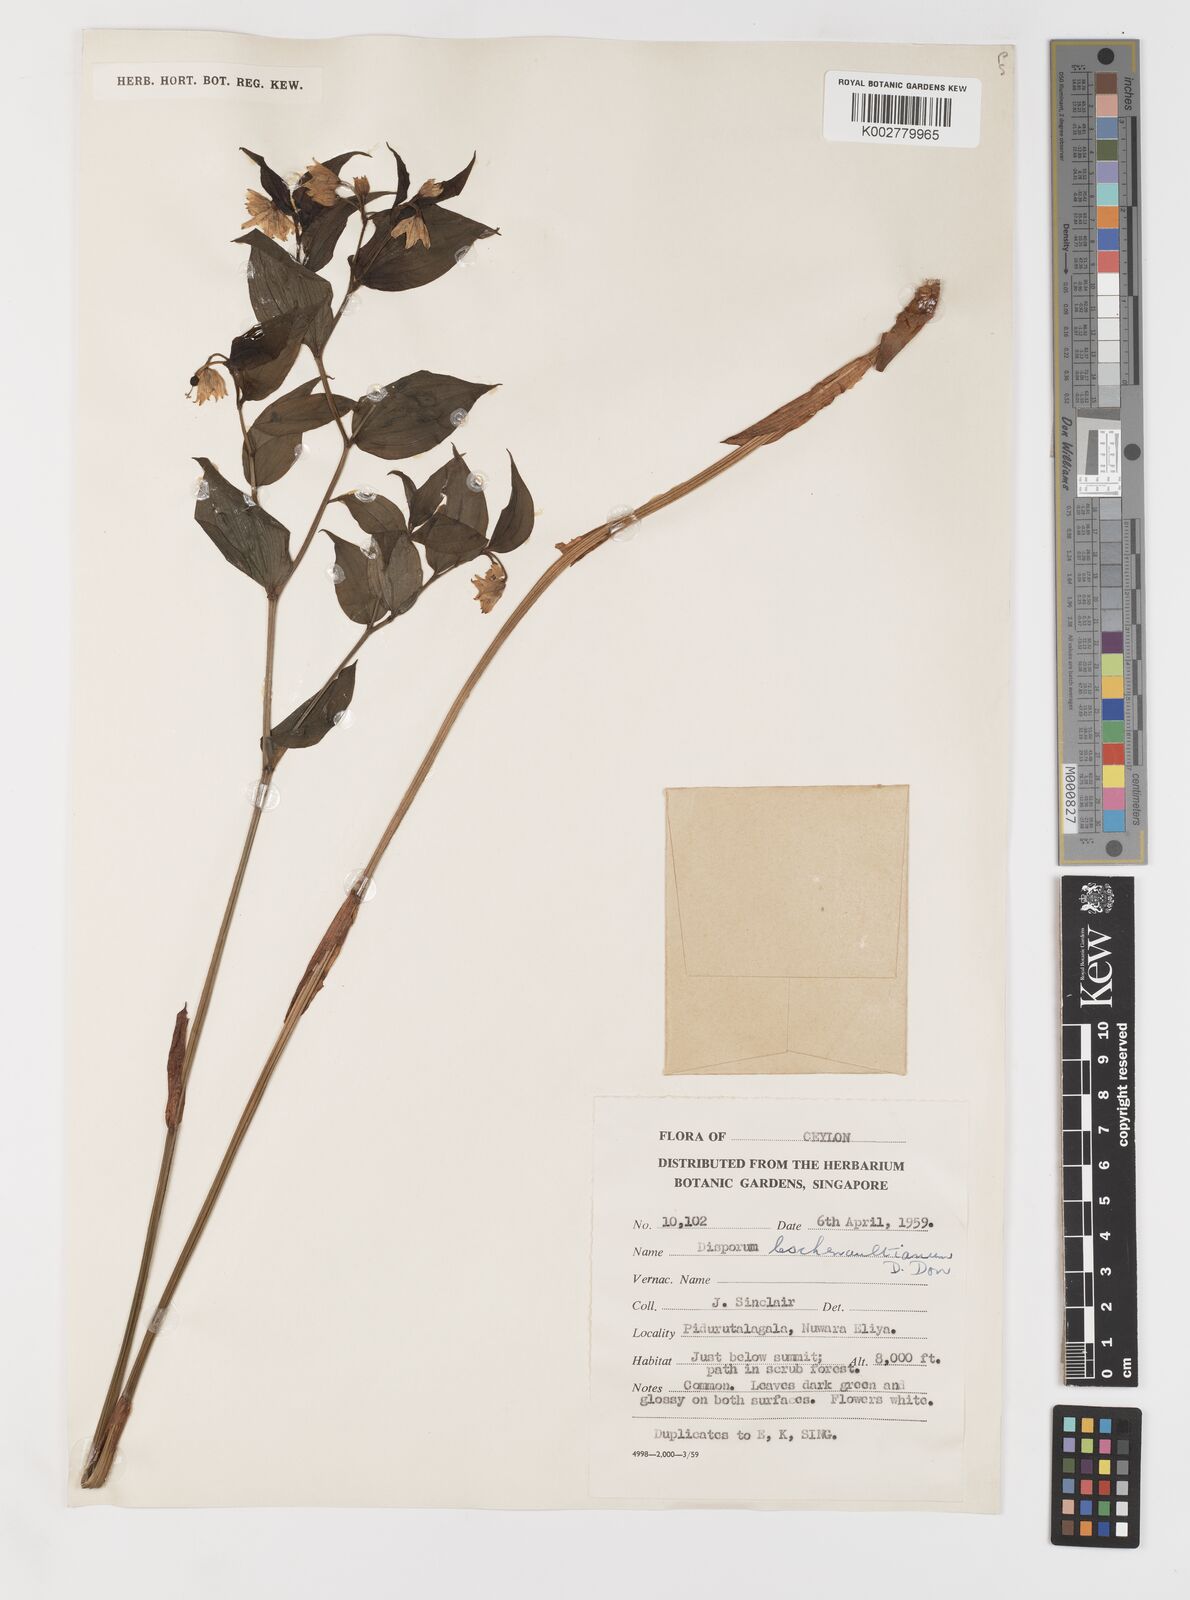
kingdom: Plantae
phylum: Tracheophyta
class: Liliopsida
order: Liliales
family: Colchicaceae
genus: Disporum
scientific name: Disporum cantoniense
